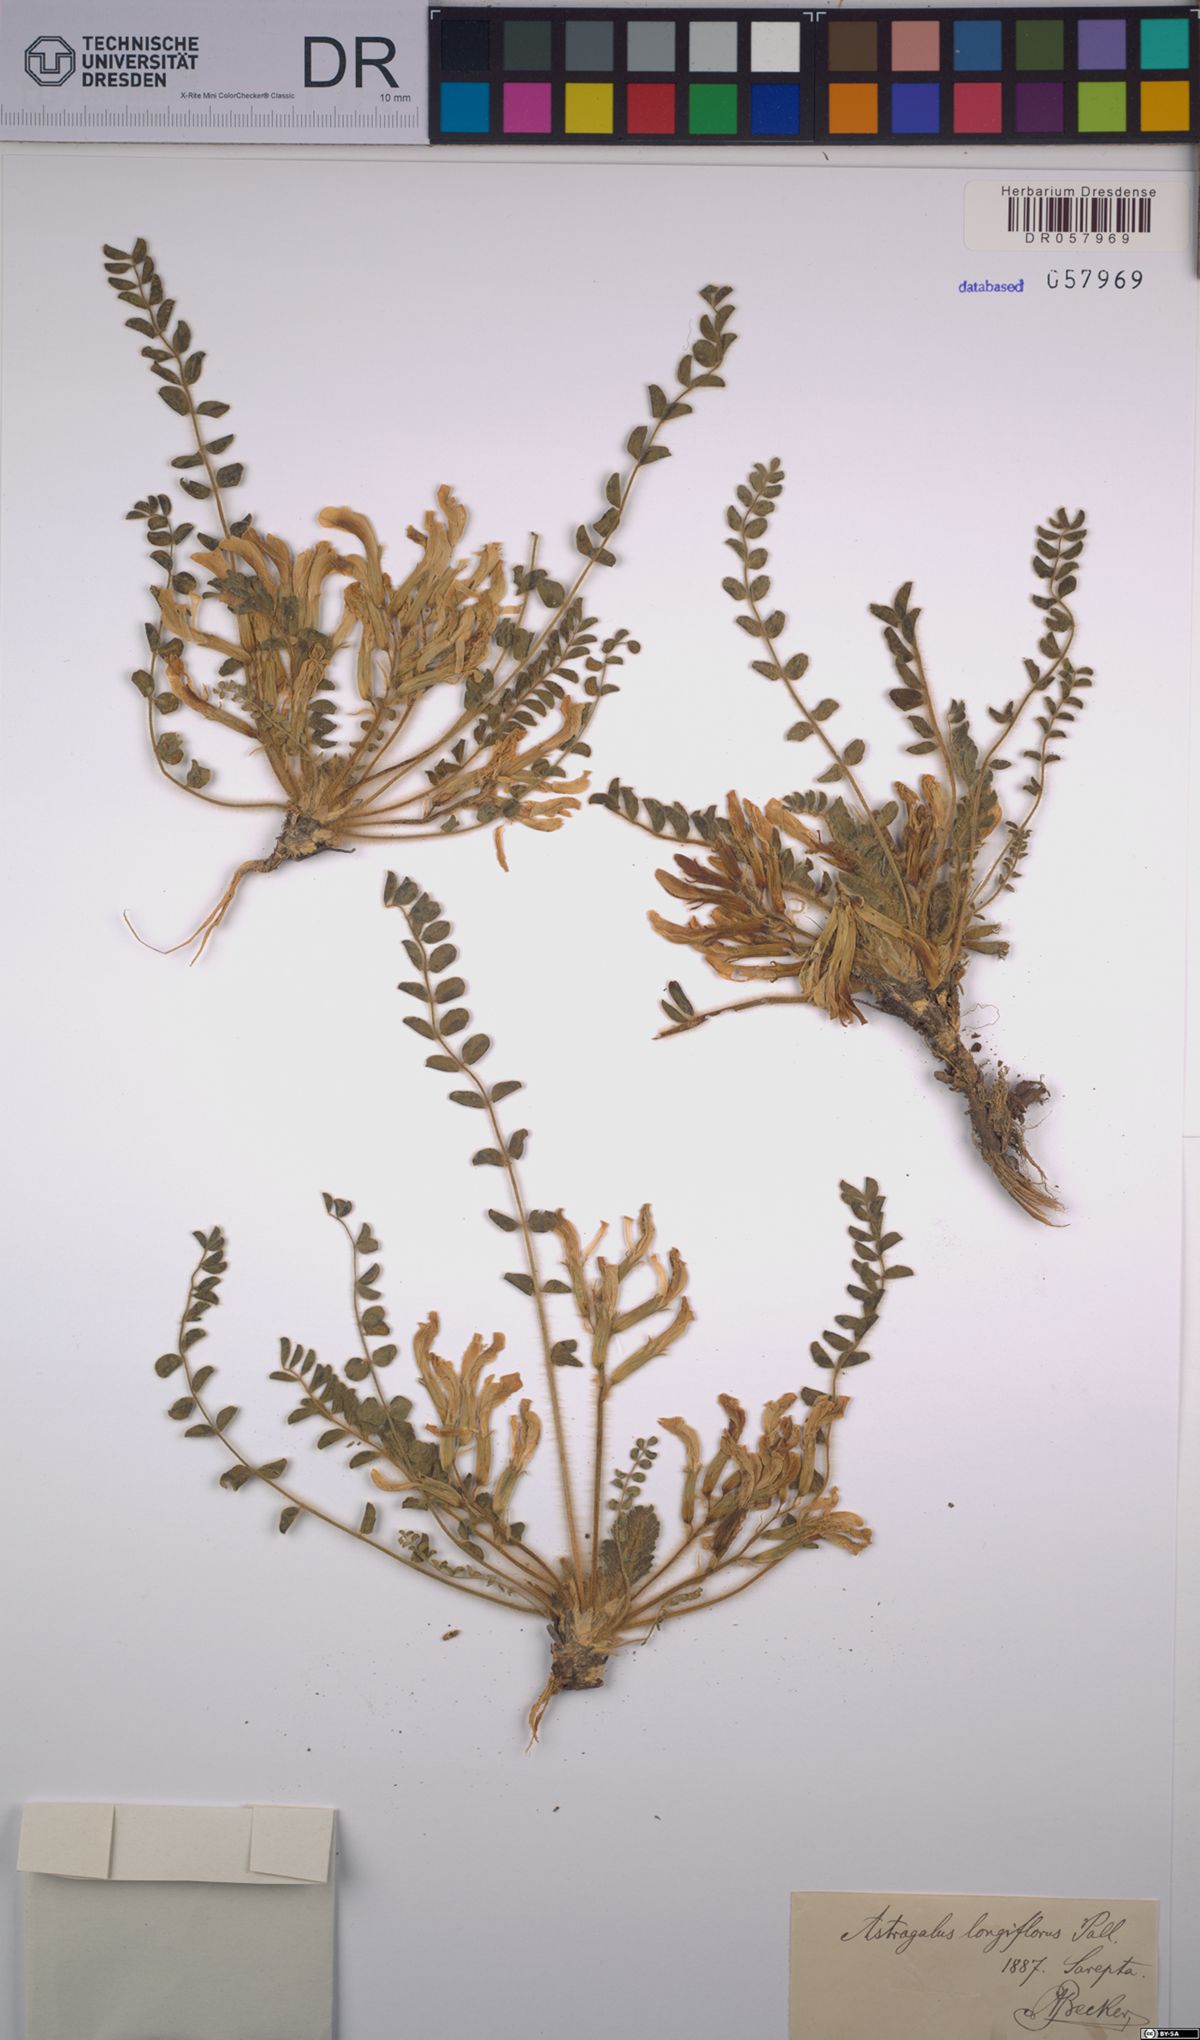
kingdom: Plantae
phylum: Tracheophyta
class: Magnoliopsida
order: Fabales
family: Fabaceae
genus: Astragalus
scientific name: Astragalus testiculatus
